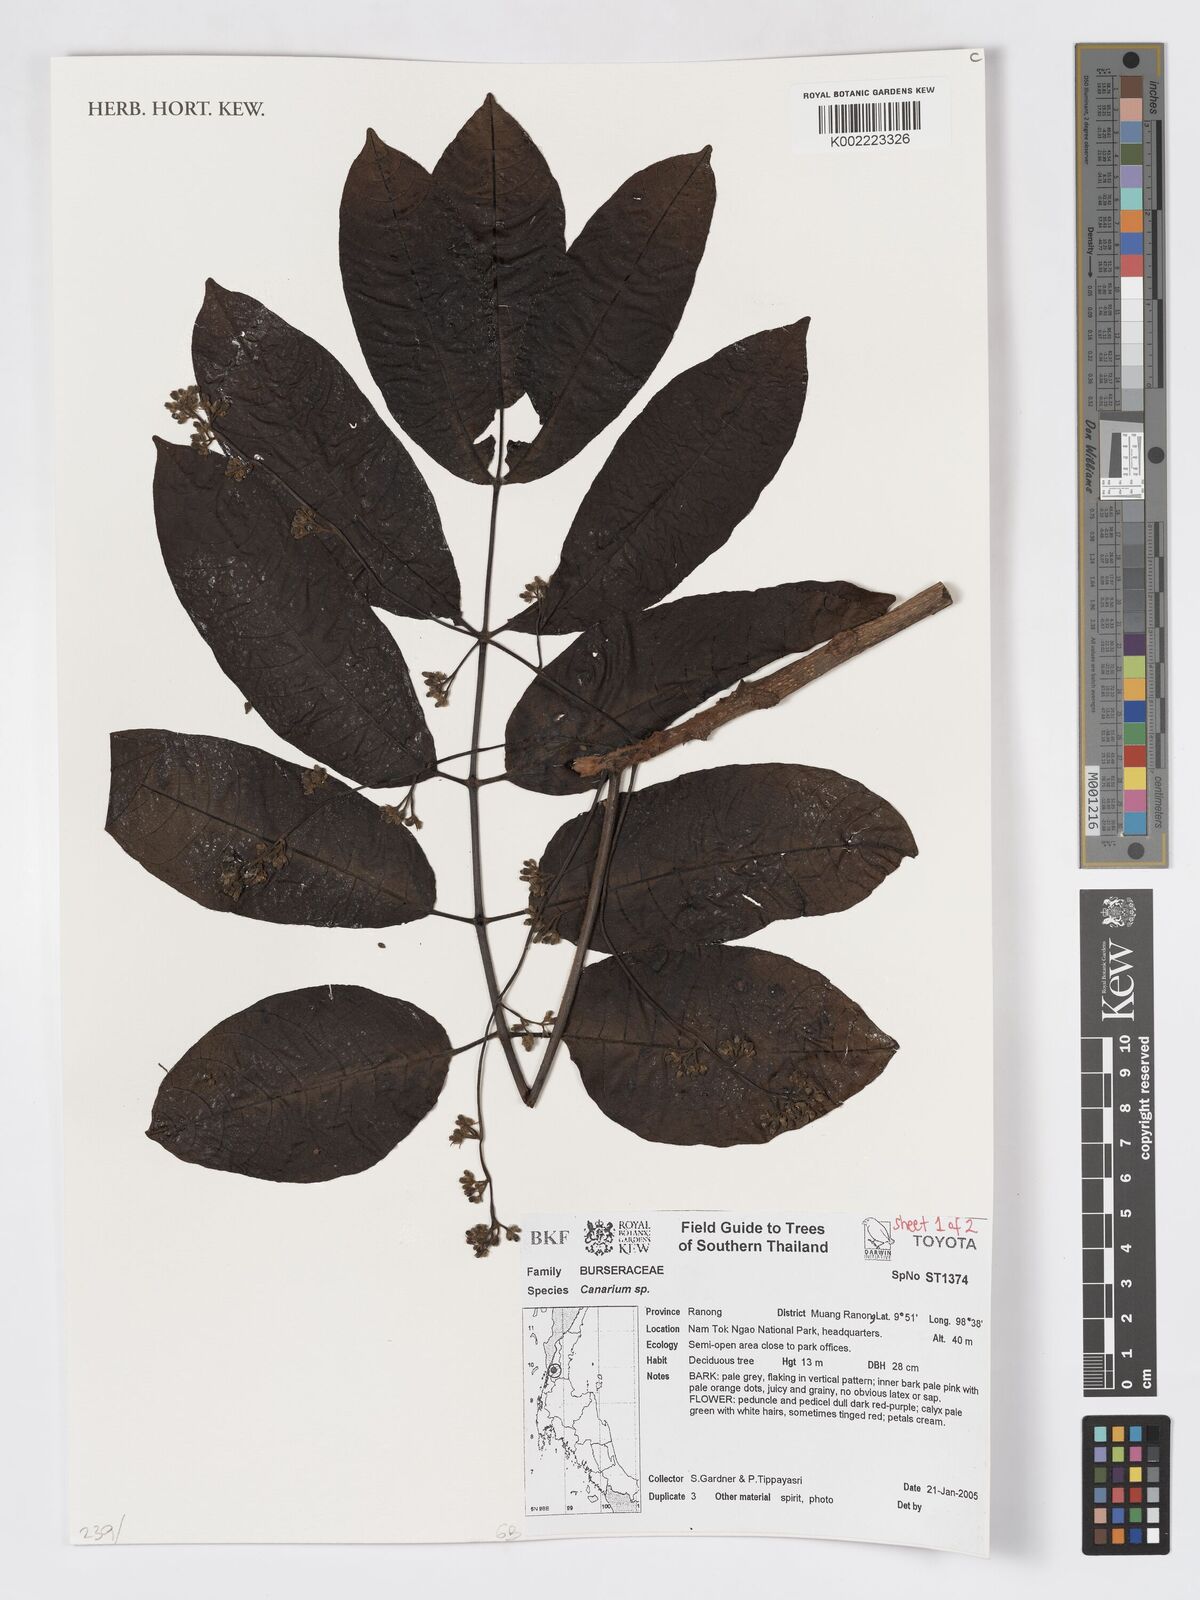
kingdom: Plantae
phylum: Tracheophyta
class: Magnoliopsida
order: Sapindales
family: Burseraceae
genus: Canarium
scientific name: Canarium
